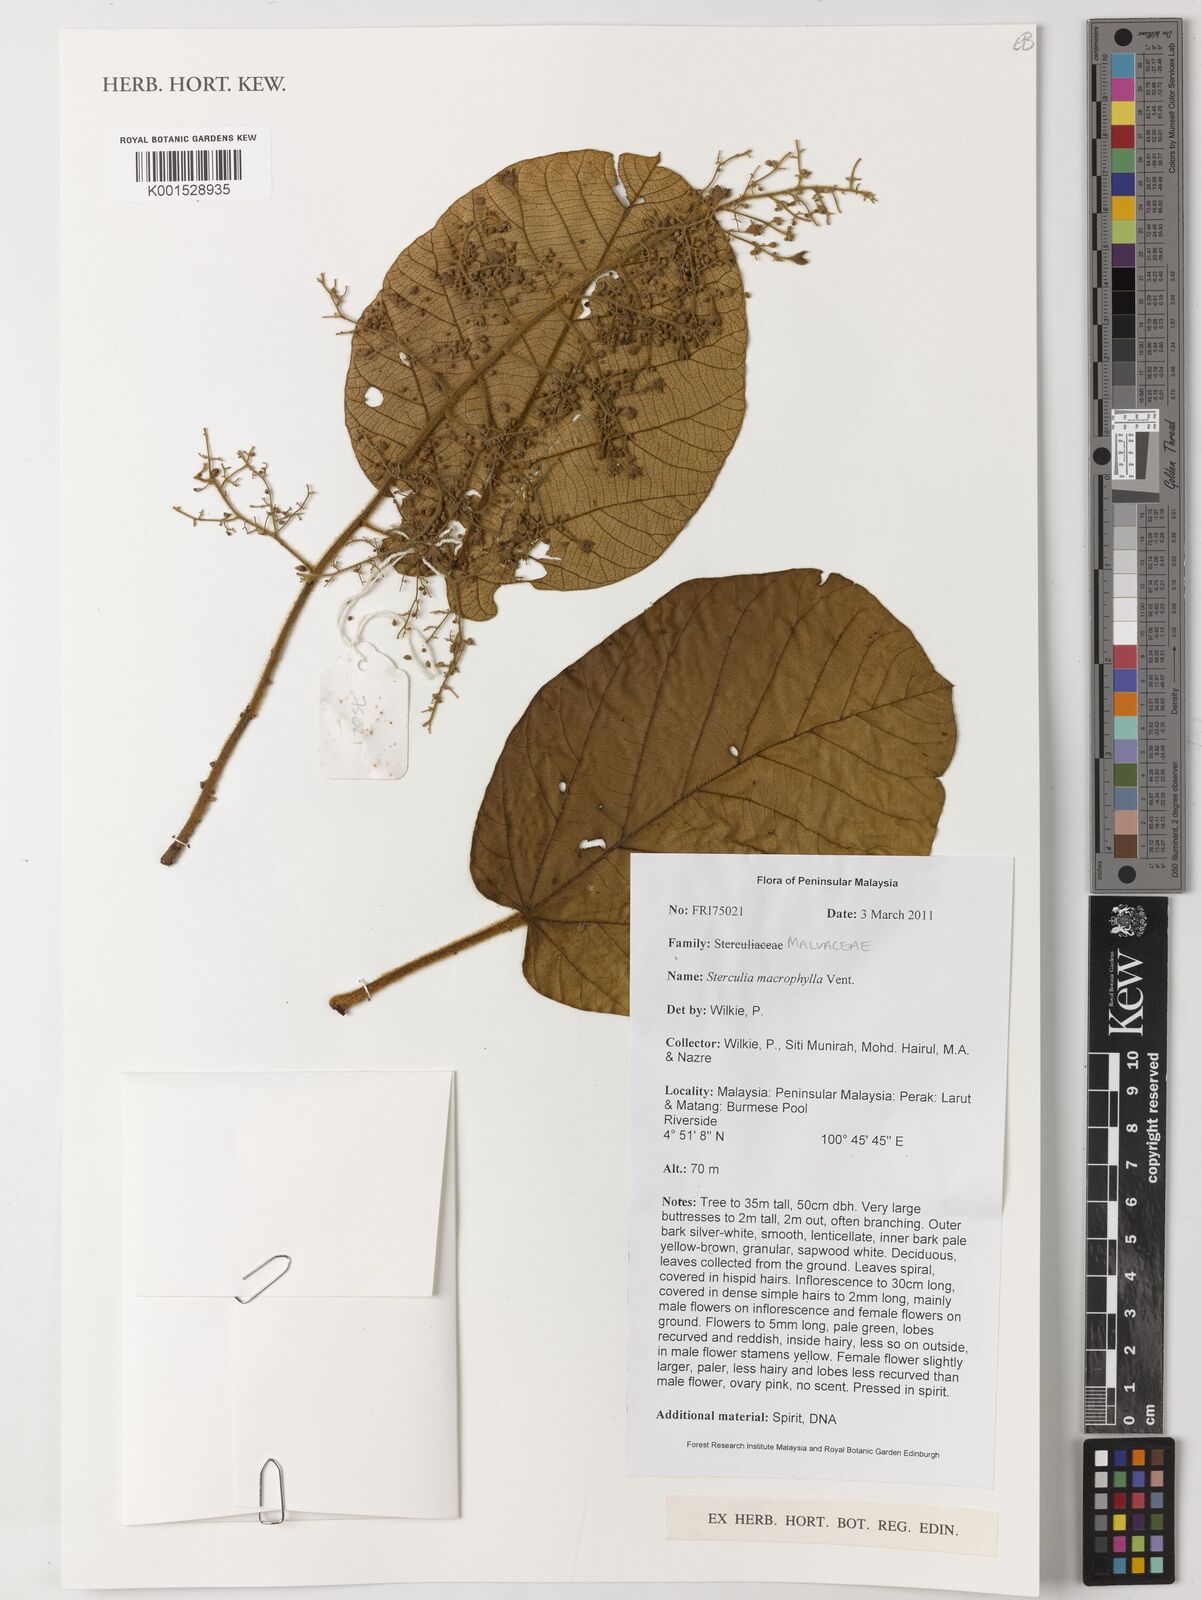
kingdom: Plantae
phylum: Tracheophyta
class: Magnoliopsida
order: Malvales
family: Malvaceae
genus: Sterculia
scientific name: Sterculia macrophylla
